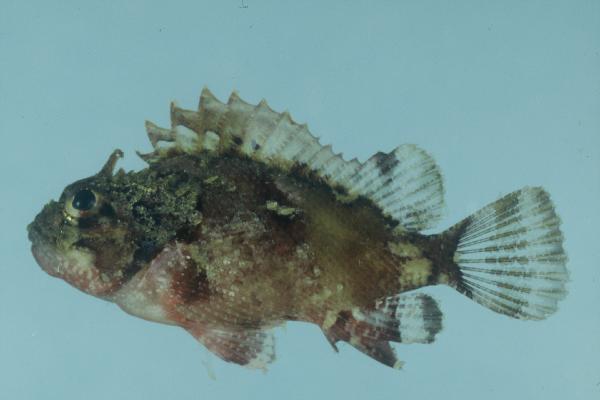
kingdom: Animalia
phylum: Chordata
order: Scorpaeniformes
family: Scorpaenidae
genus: Parascorpaena
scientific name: Parascorpaena mossambica
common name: Mozambique scorpionfish
